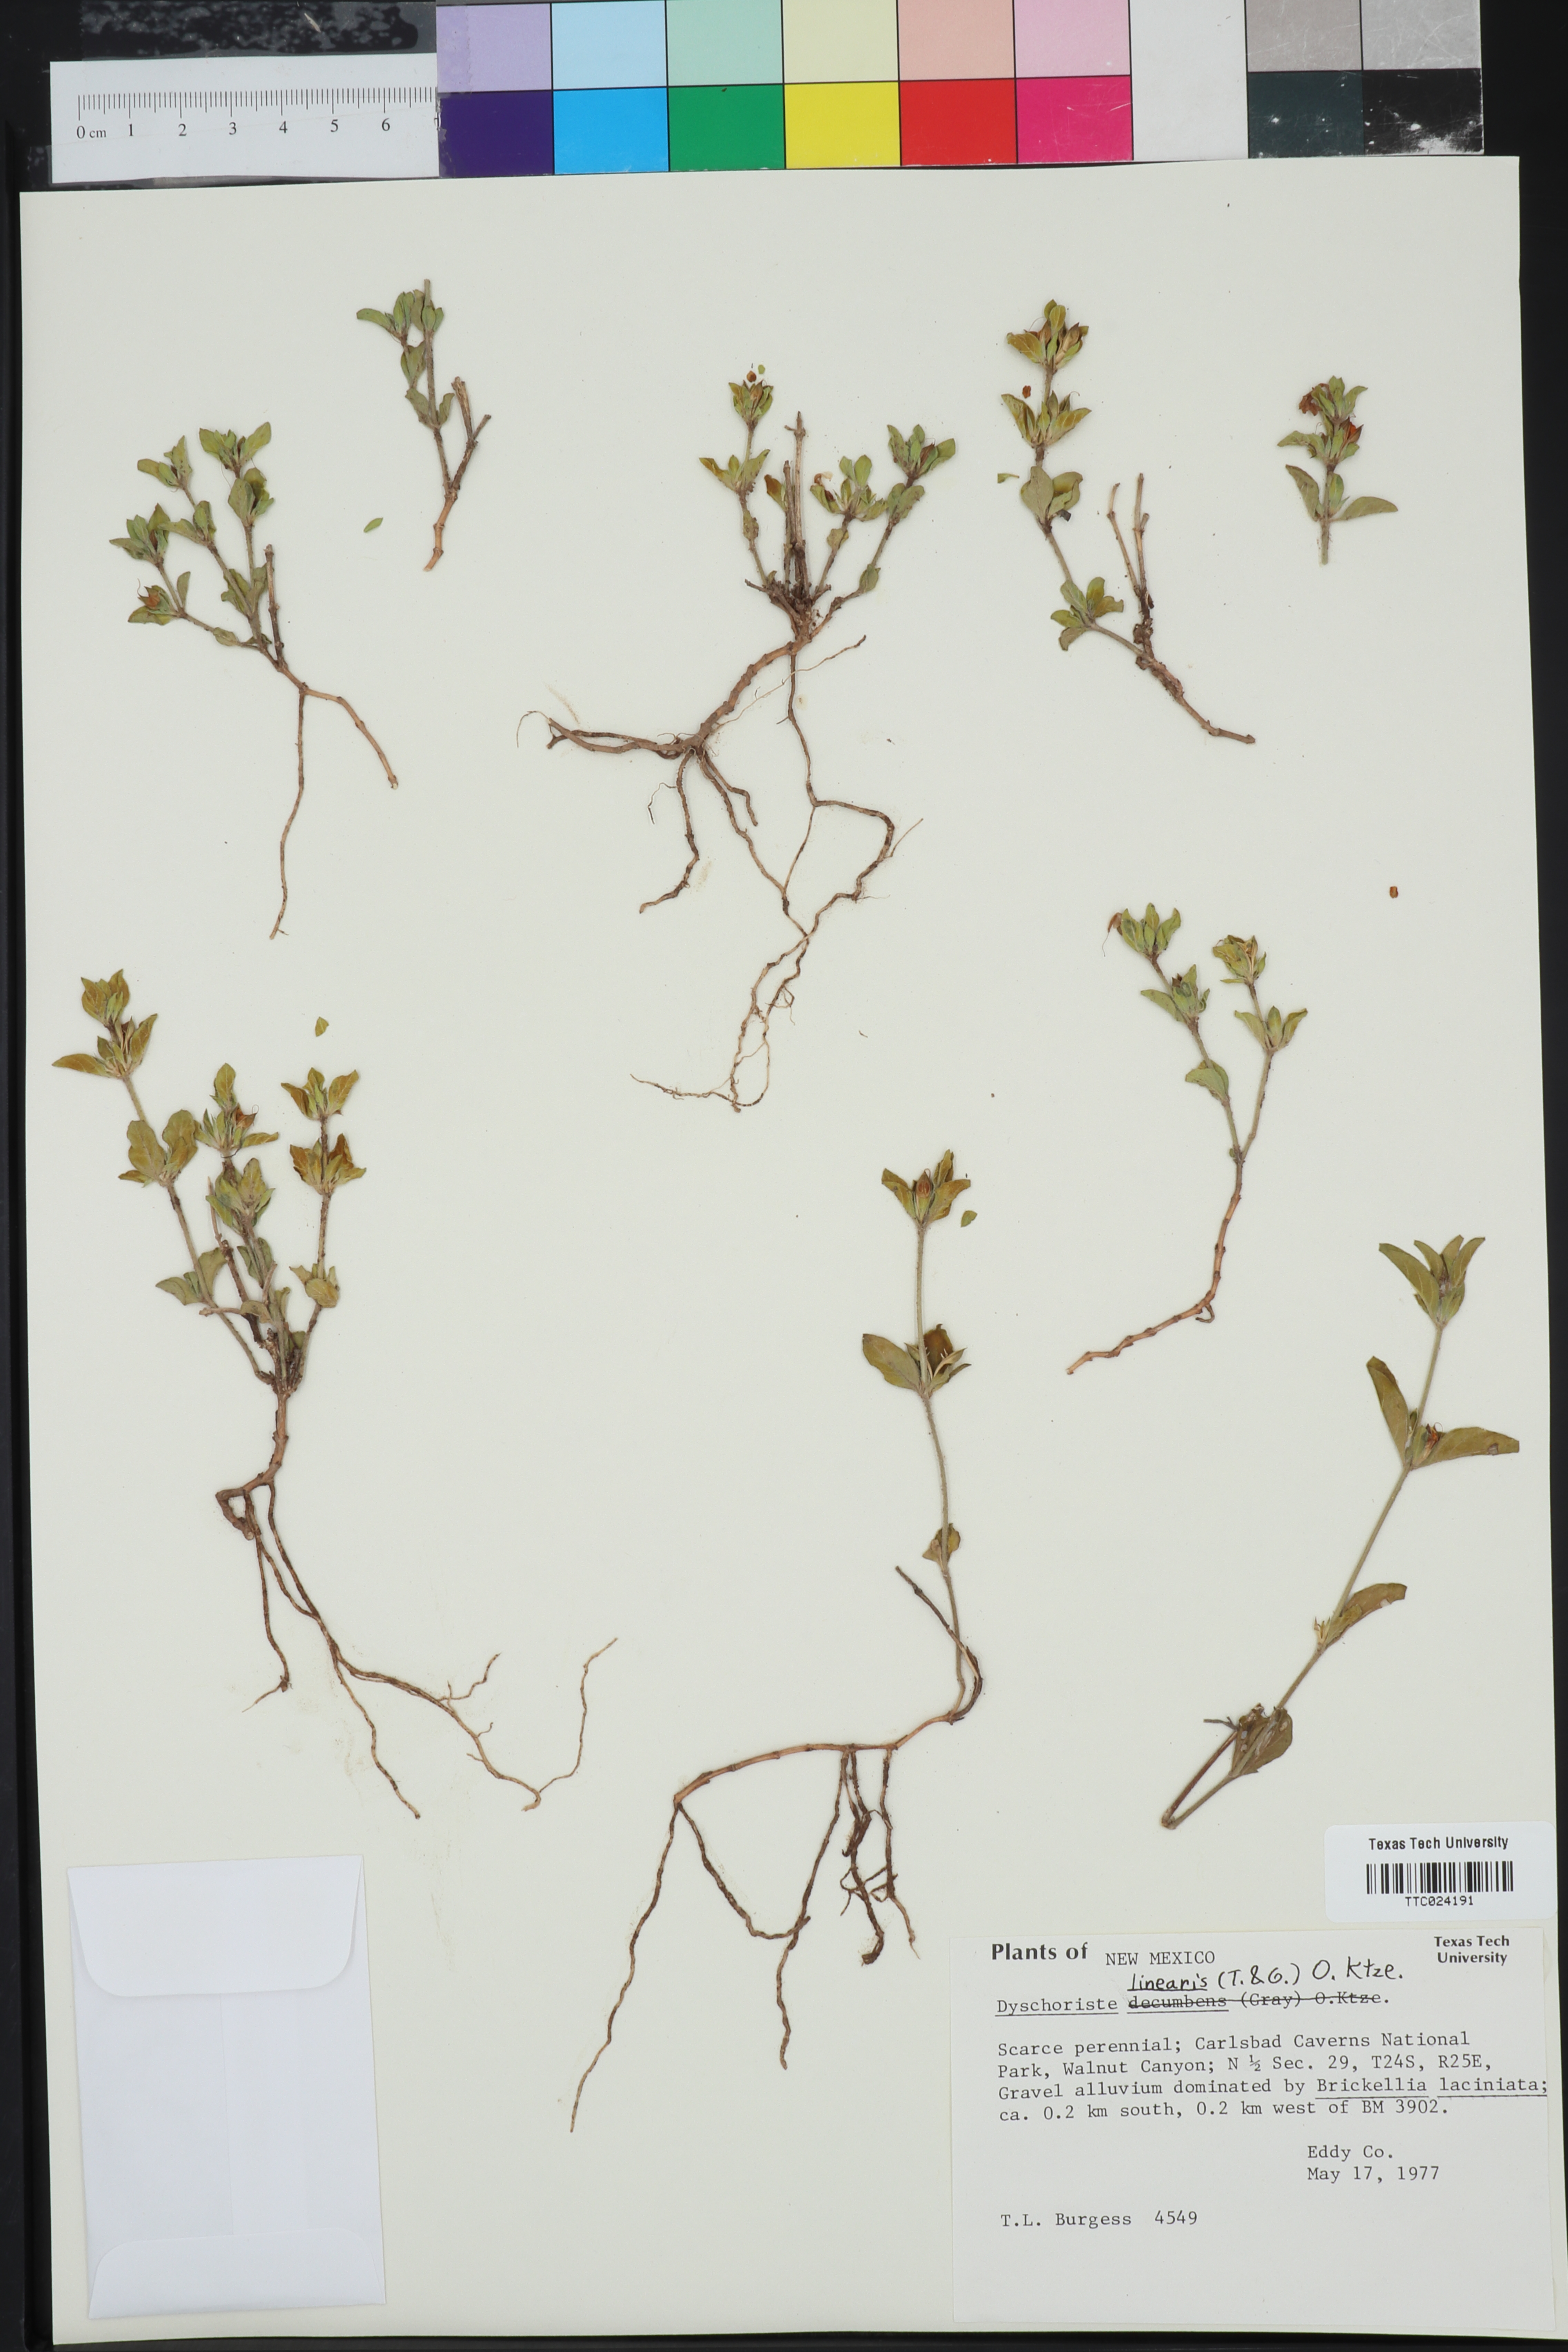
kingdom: Plantae
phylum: Tracheophyta
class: Magnoliopsida
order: Lamiales
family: Acanthaceae
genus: Dyschoriste
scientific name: Dyschoriste linearis
